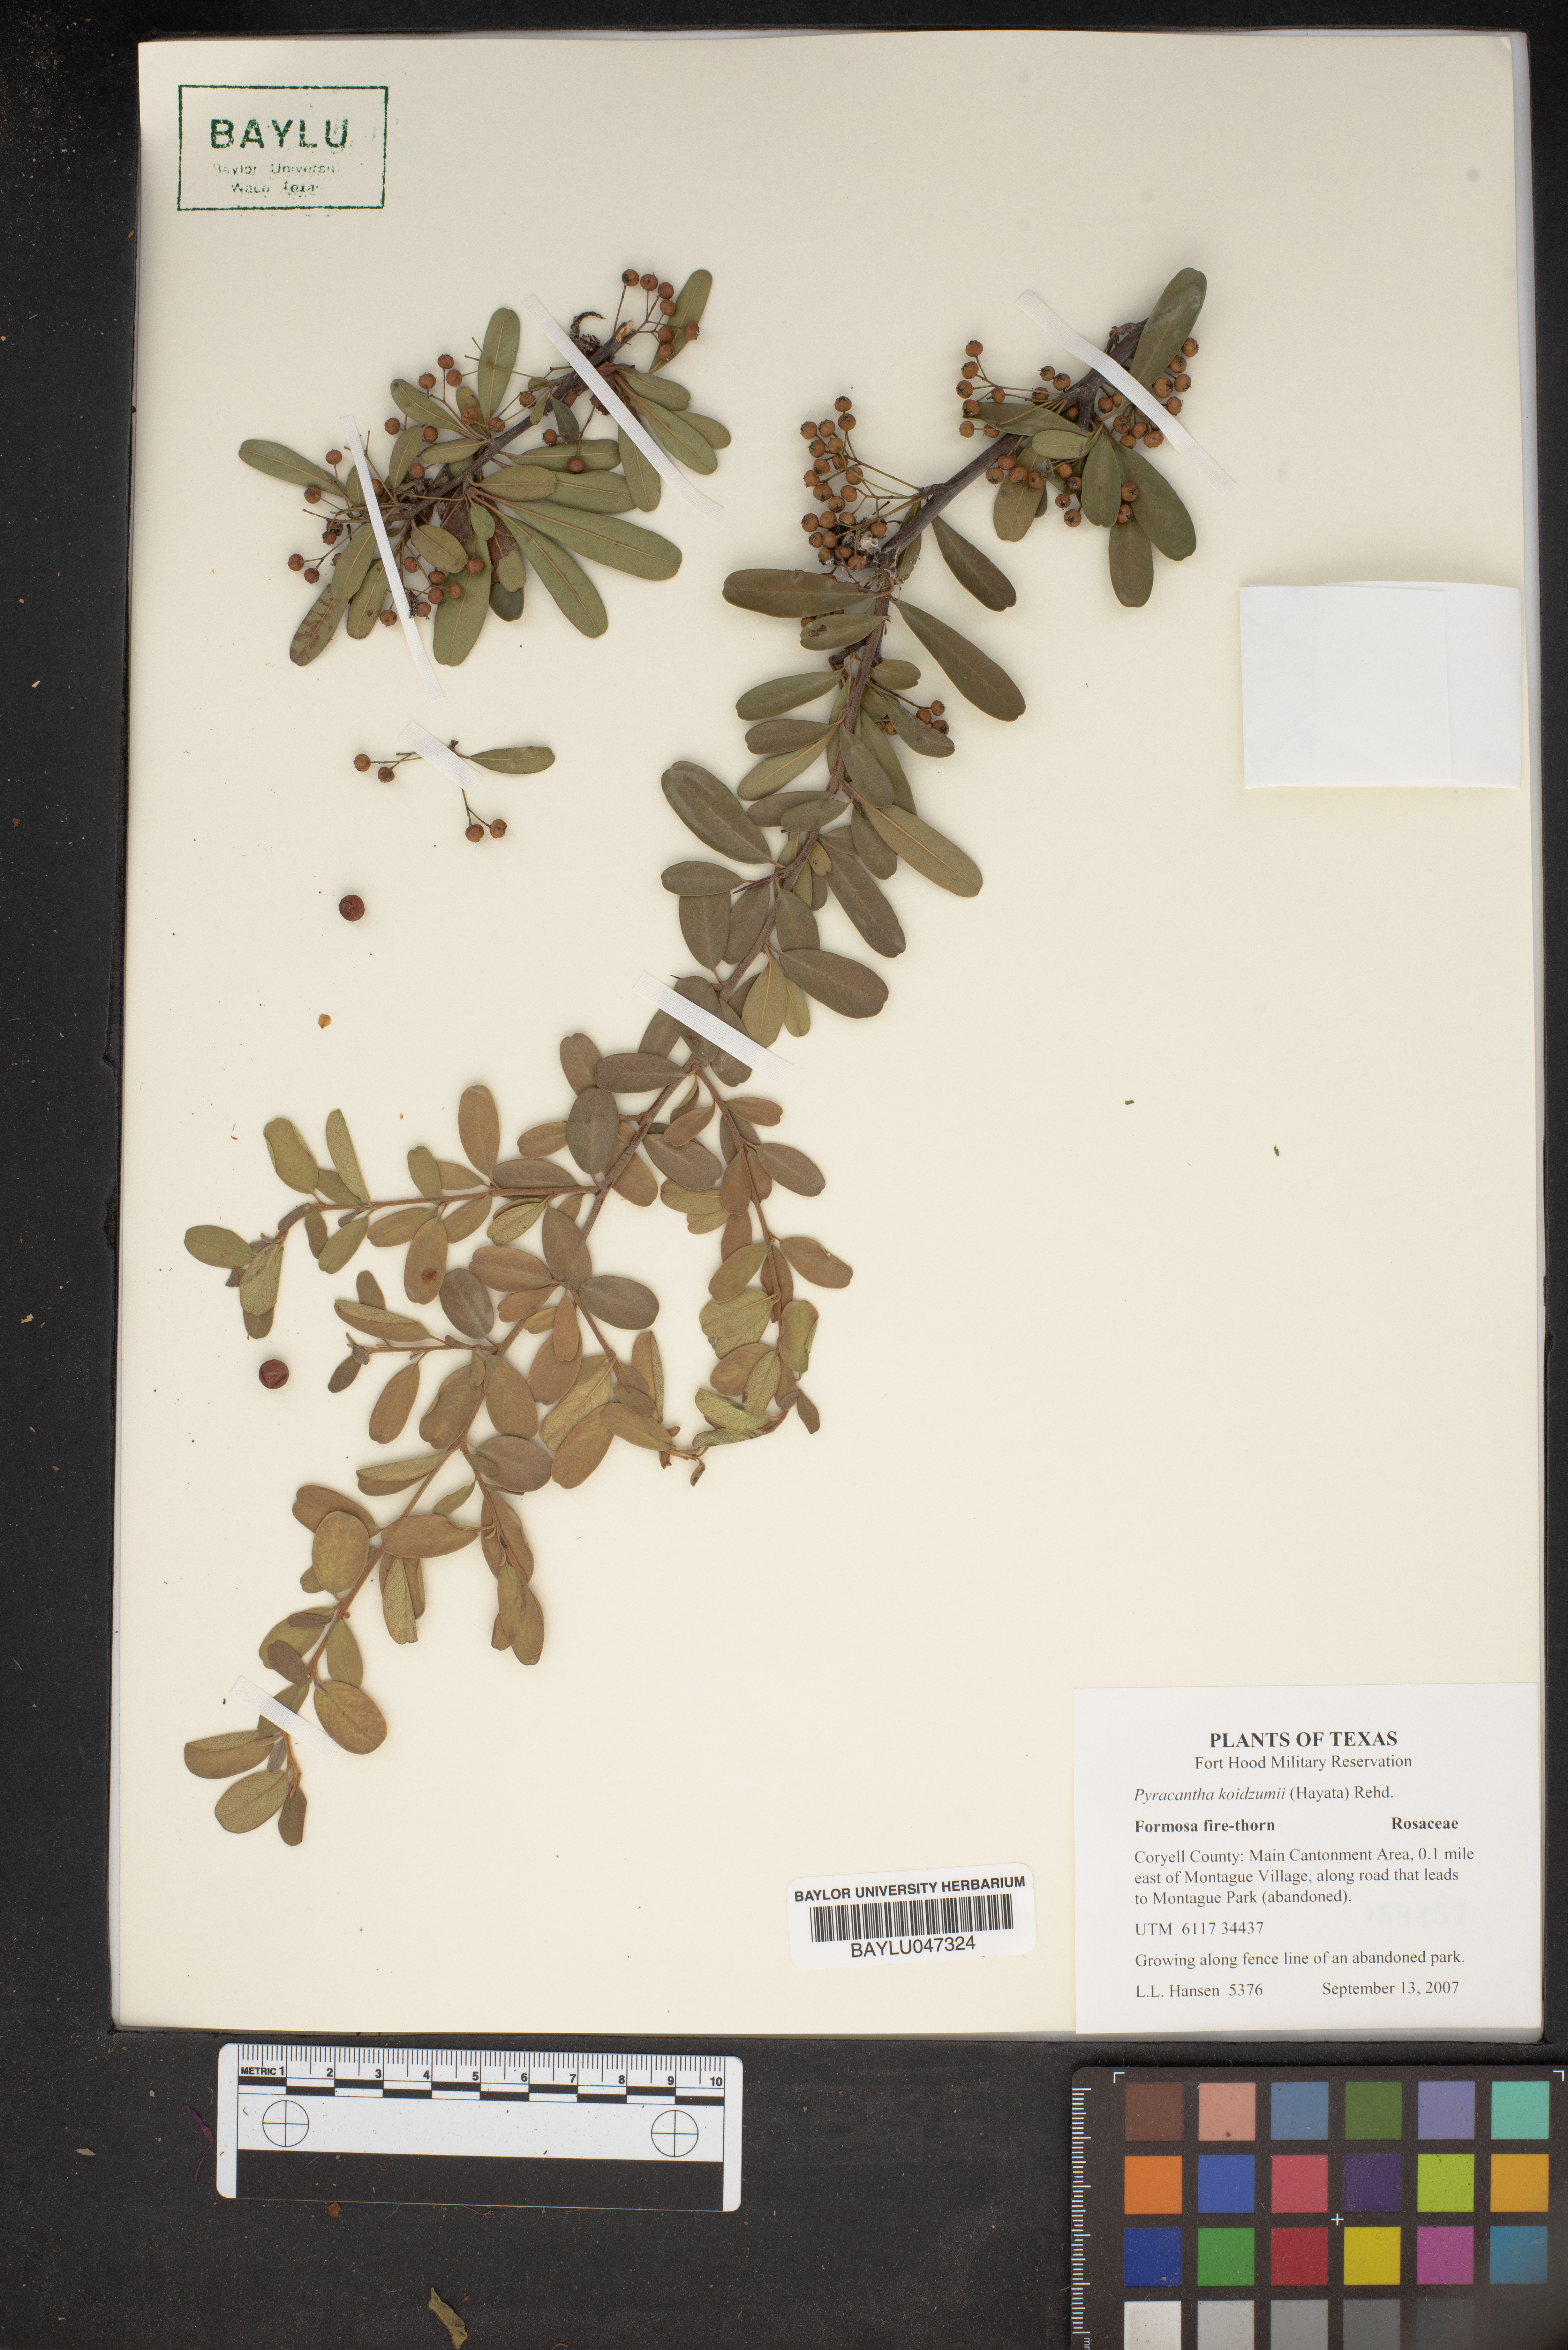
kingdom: Plantae
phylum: Tracheophyta
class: Magnoliopsida
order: Rosales
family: Rosaceae
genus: Pyracantha
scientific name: Pyracantha koidzumii
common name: Formosa firethorn
